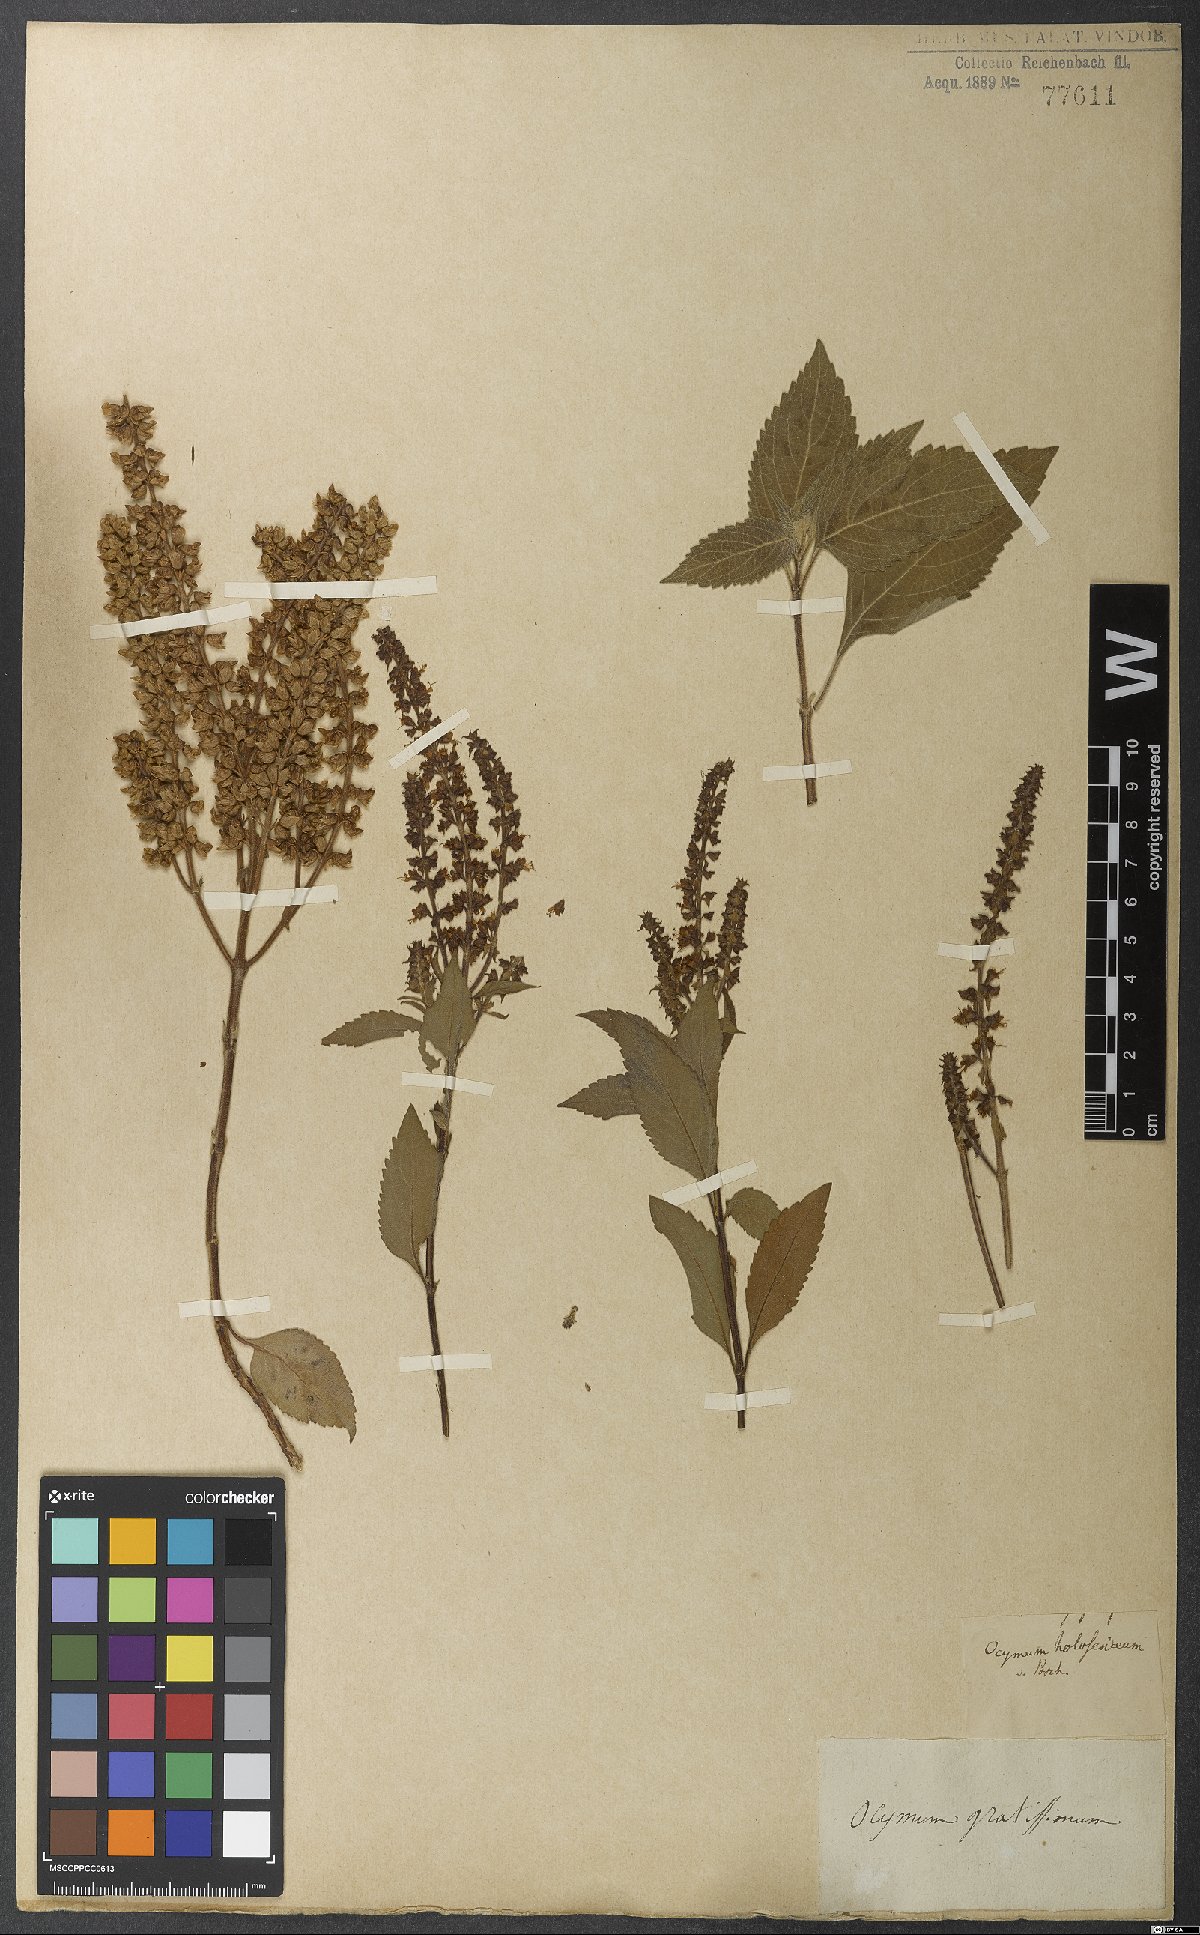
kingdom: Plantae
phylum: Tracheophyta
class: Magnoliopsida
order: Lamiales
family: Lamiaceae
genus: Ocimum
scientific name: Ocimum gratissimum
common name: African basil
